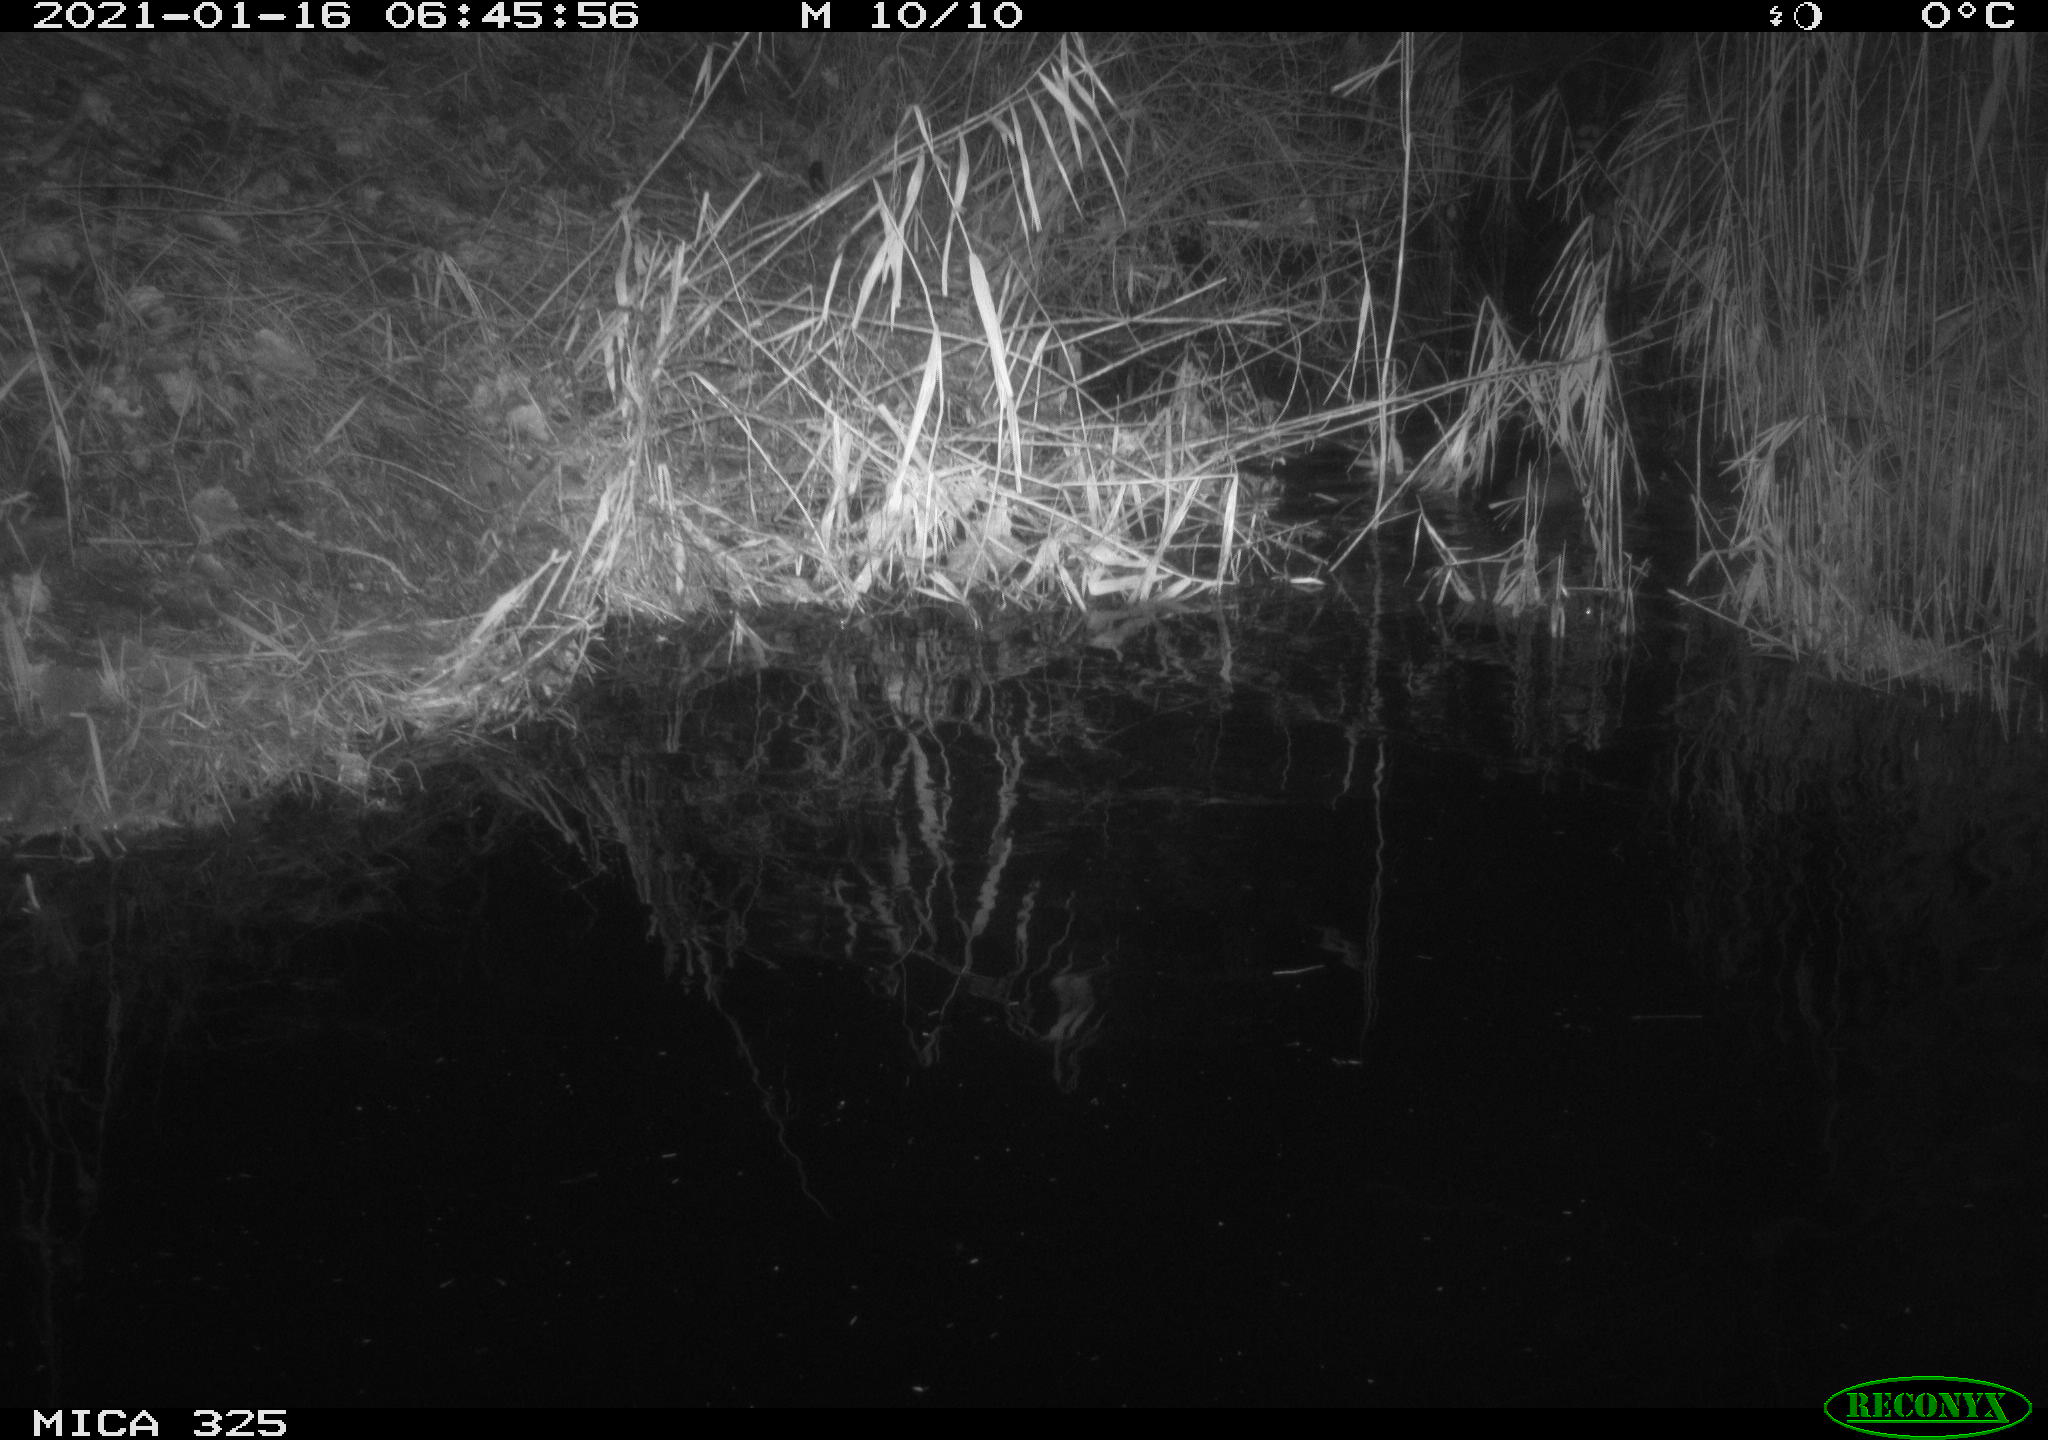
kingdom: Animalia
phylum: Chordata
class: Mammalia
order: Rodentia
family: Myocastoridae
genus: Myocastor
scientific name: Myocastor coypus
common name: Coypu
